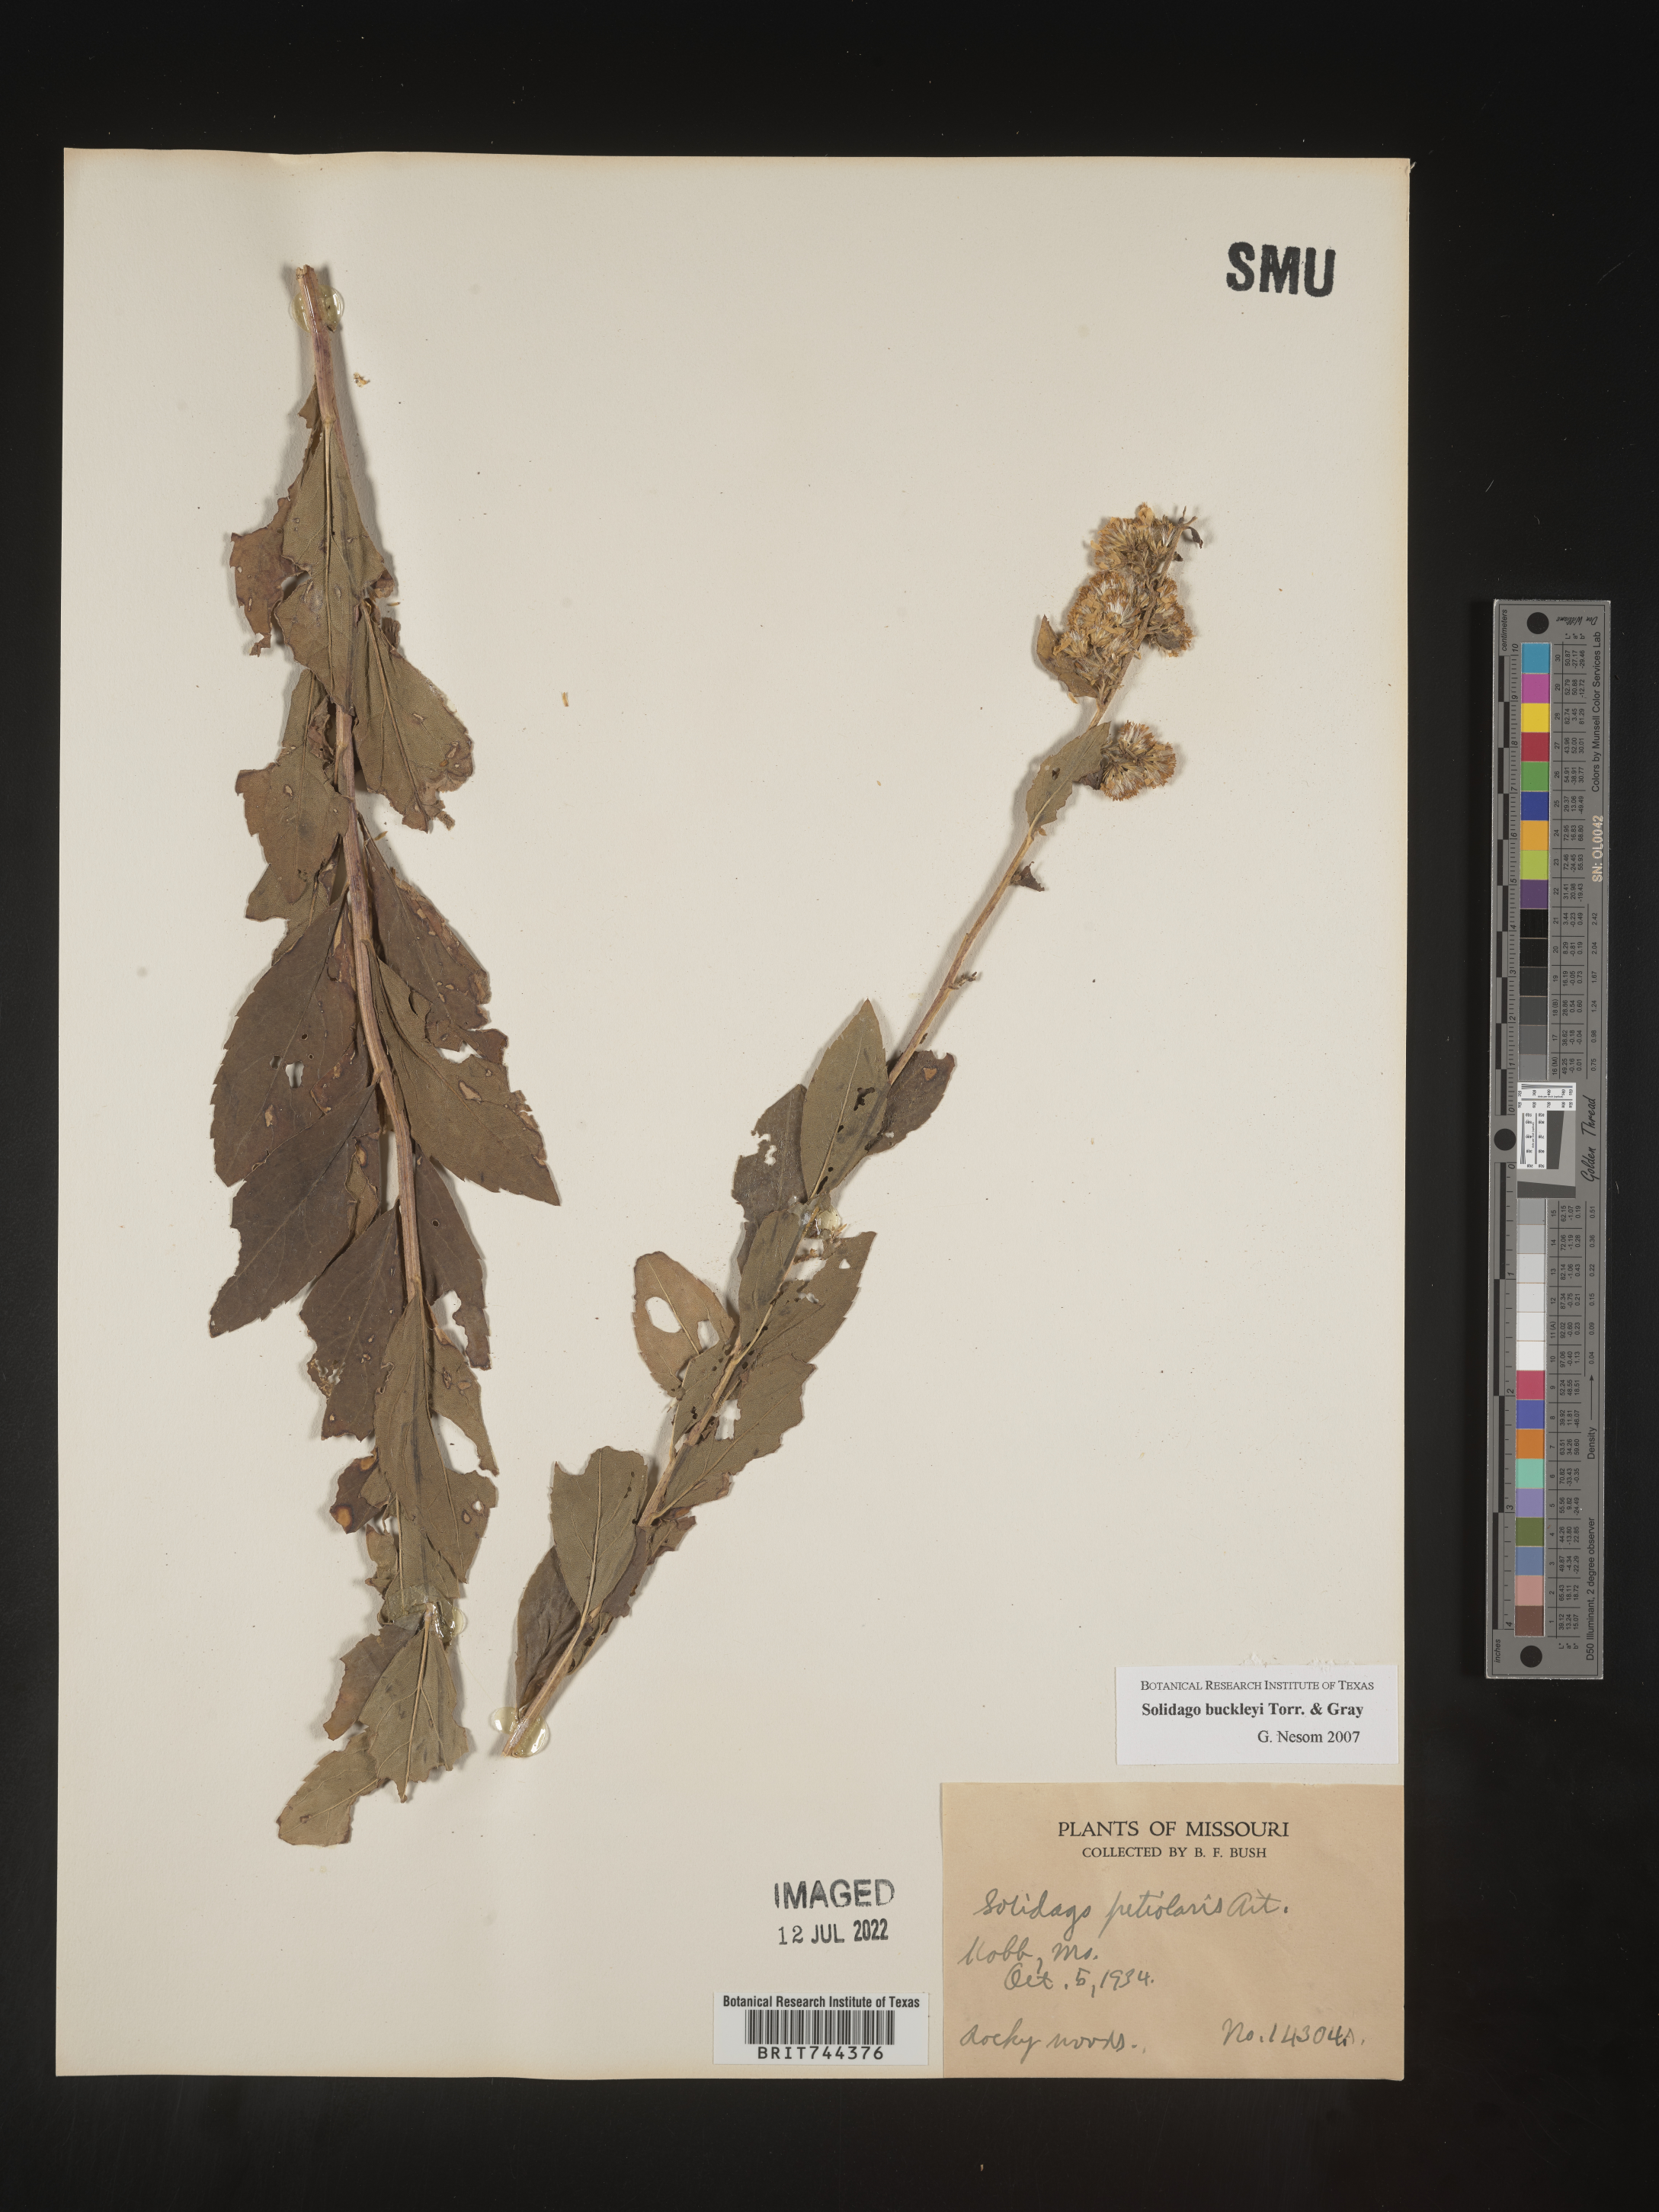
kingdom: Plantae
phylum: Tracheophyta
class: Magnoliopsida
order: Asterales
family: Asteraceae
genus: Solidago
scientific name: Solidago buckleyi
